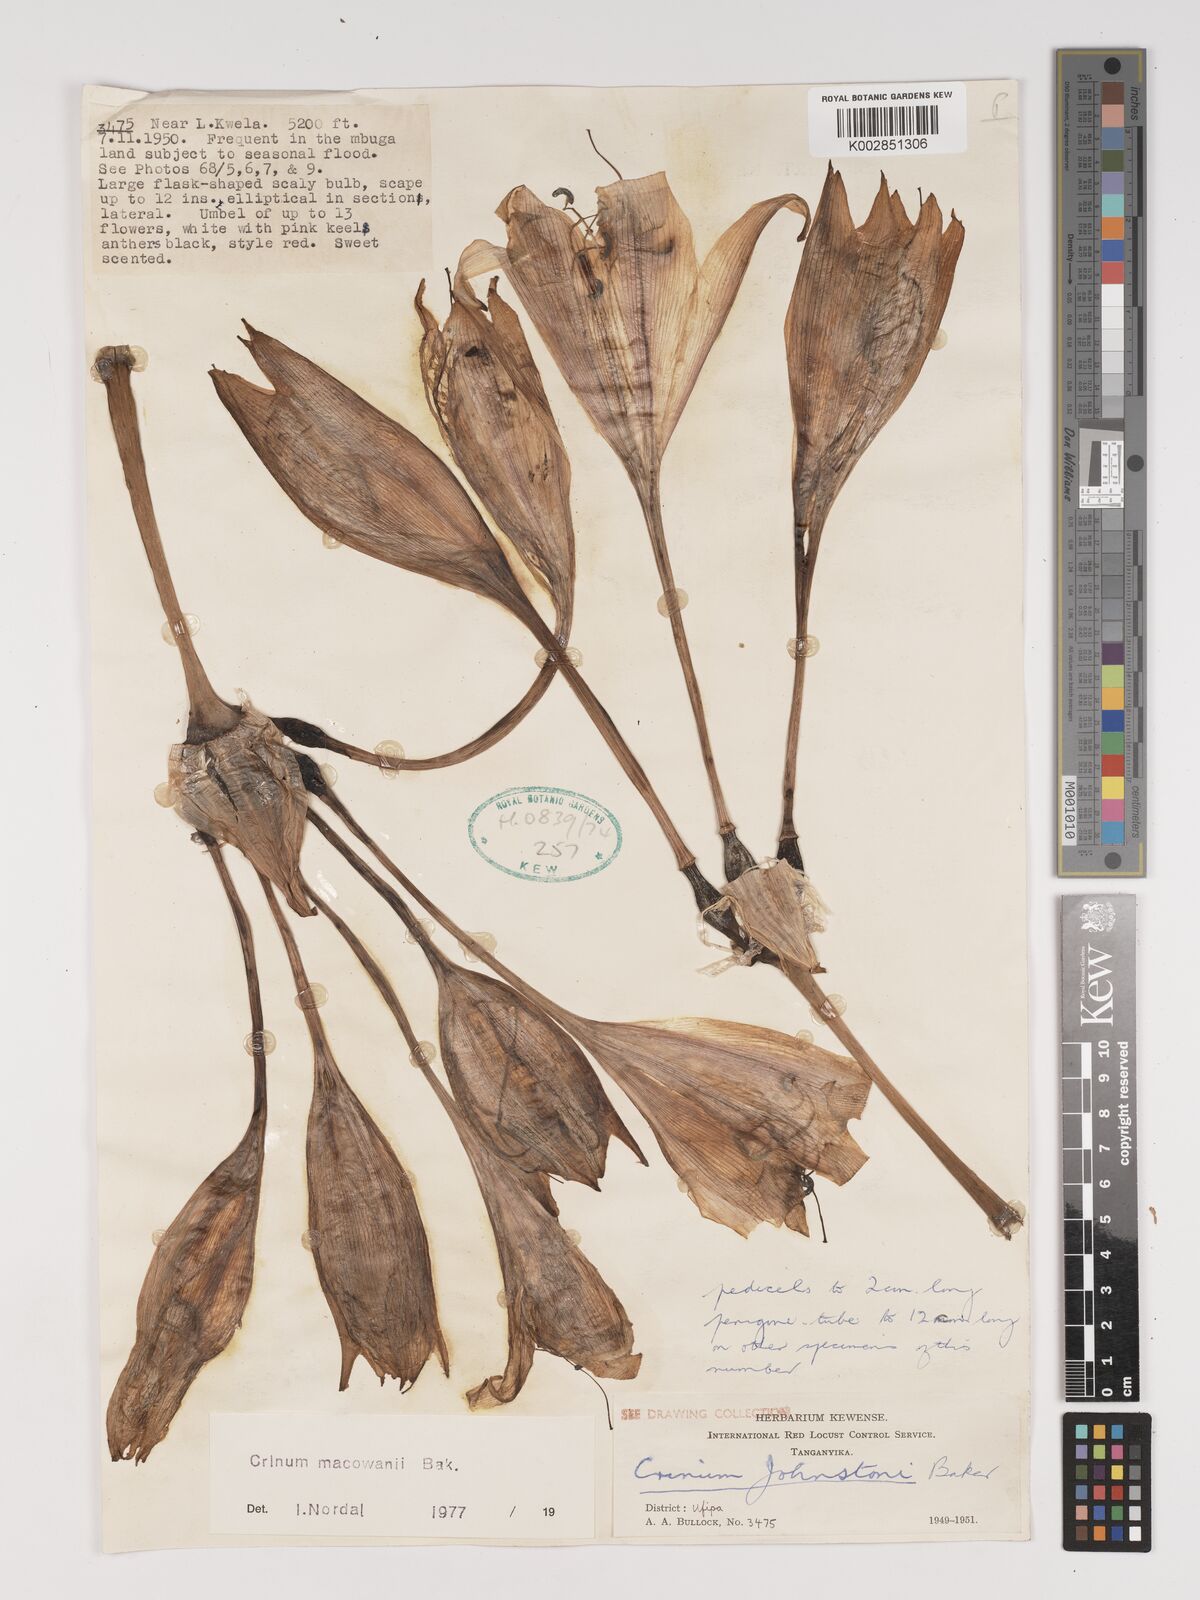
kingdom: Plantae
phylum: Tracheophyta
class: Liliopsida
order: Asparagales
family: Amaryllidaceae
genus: Crinum
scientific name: Crinum macowanii
